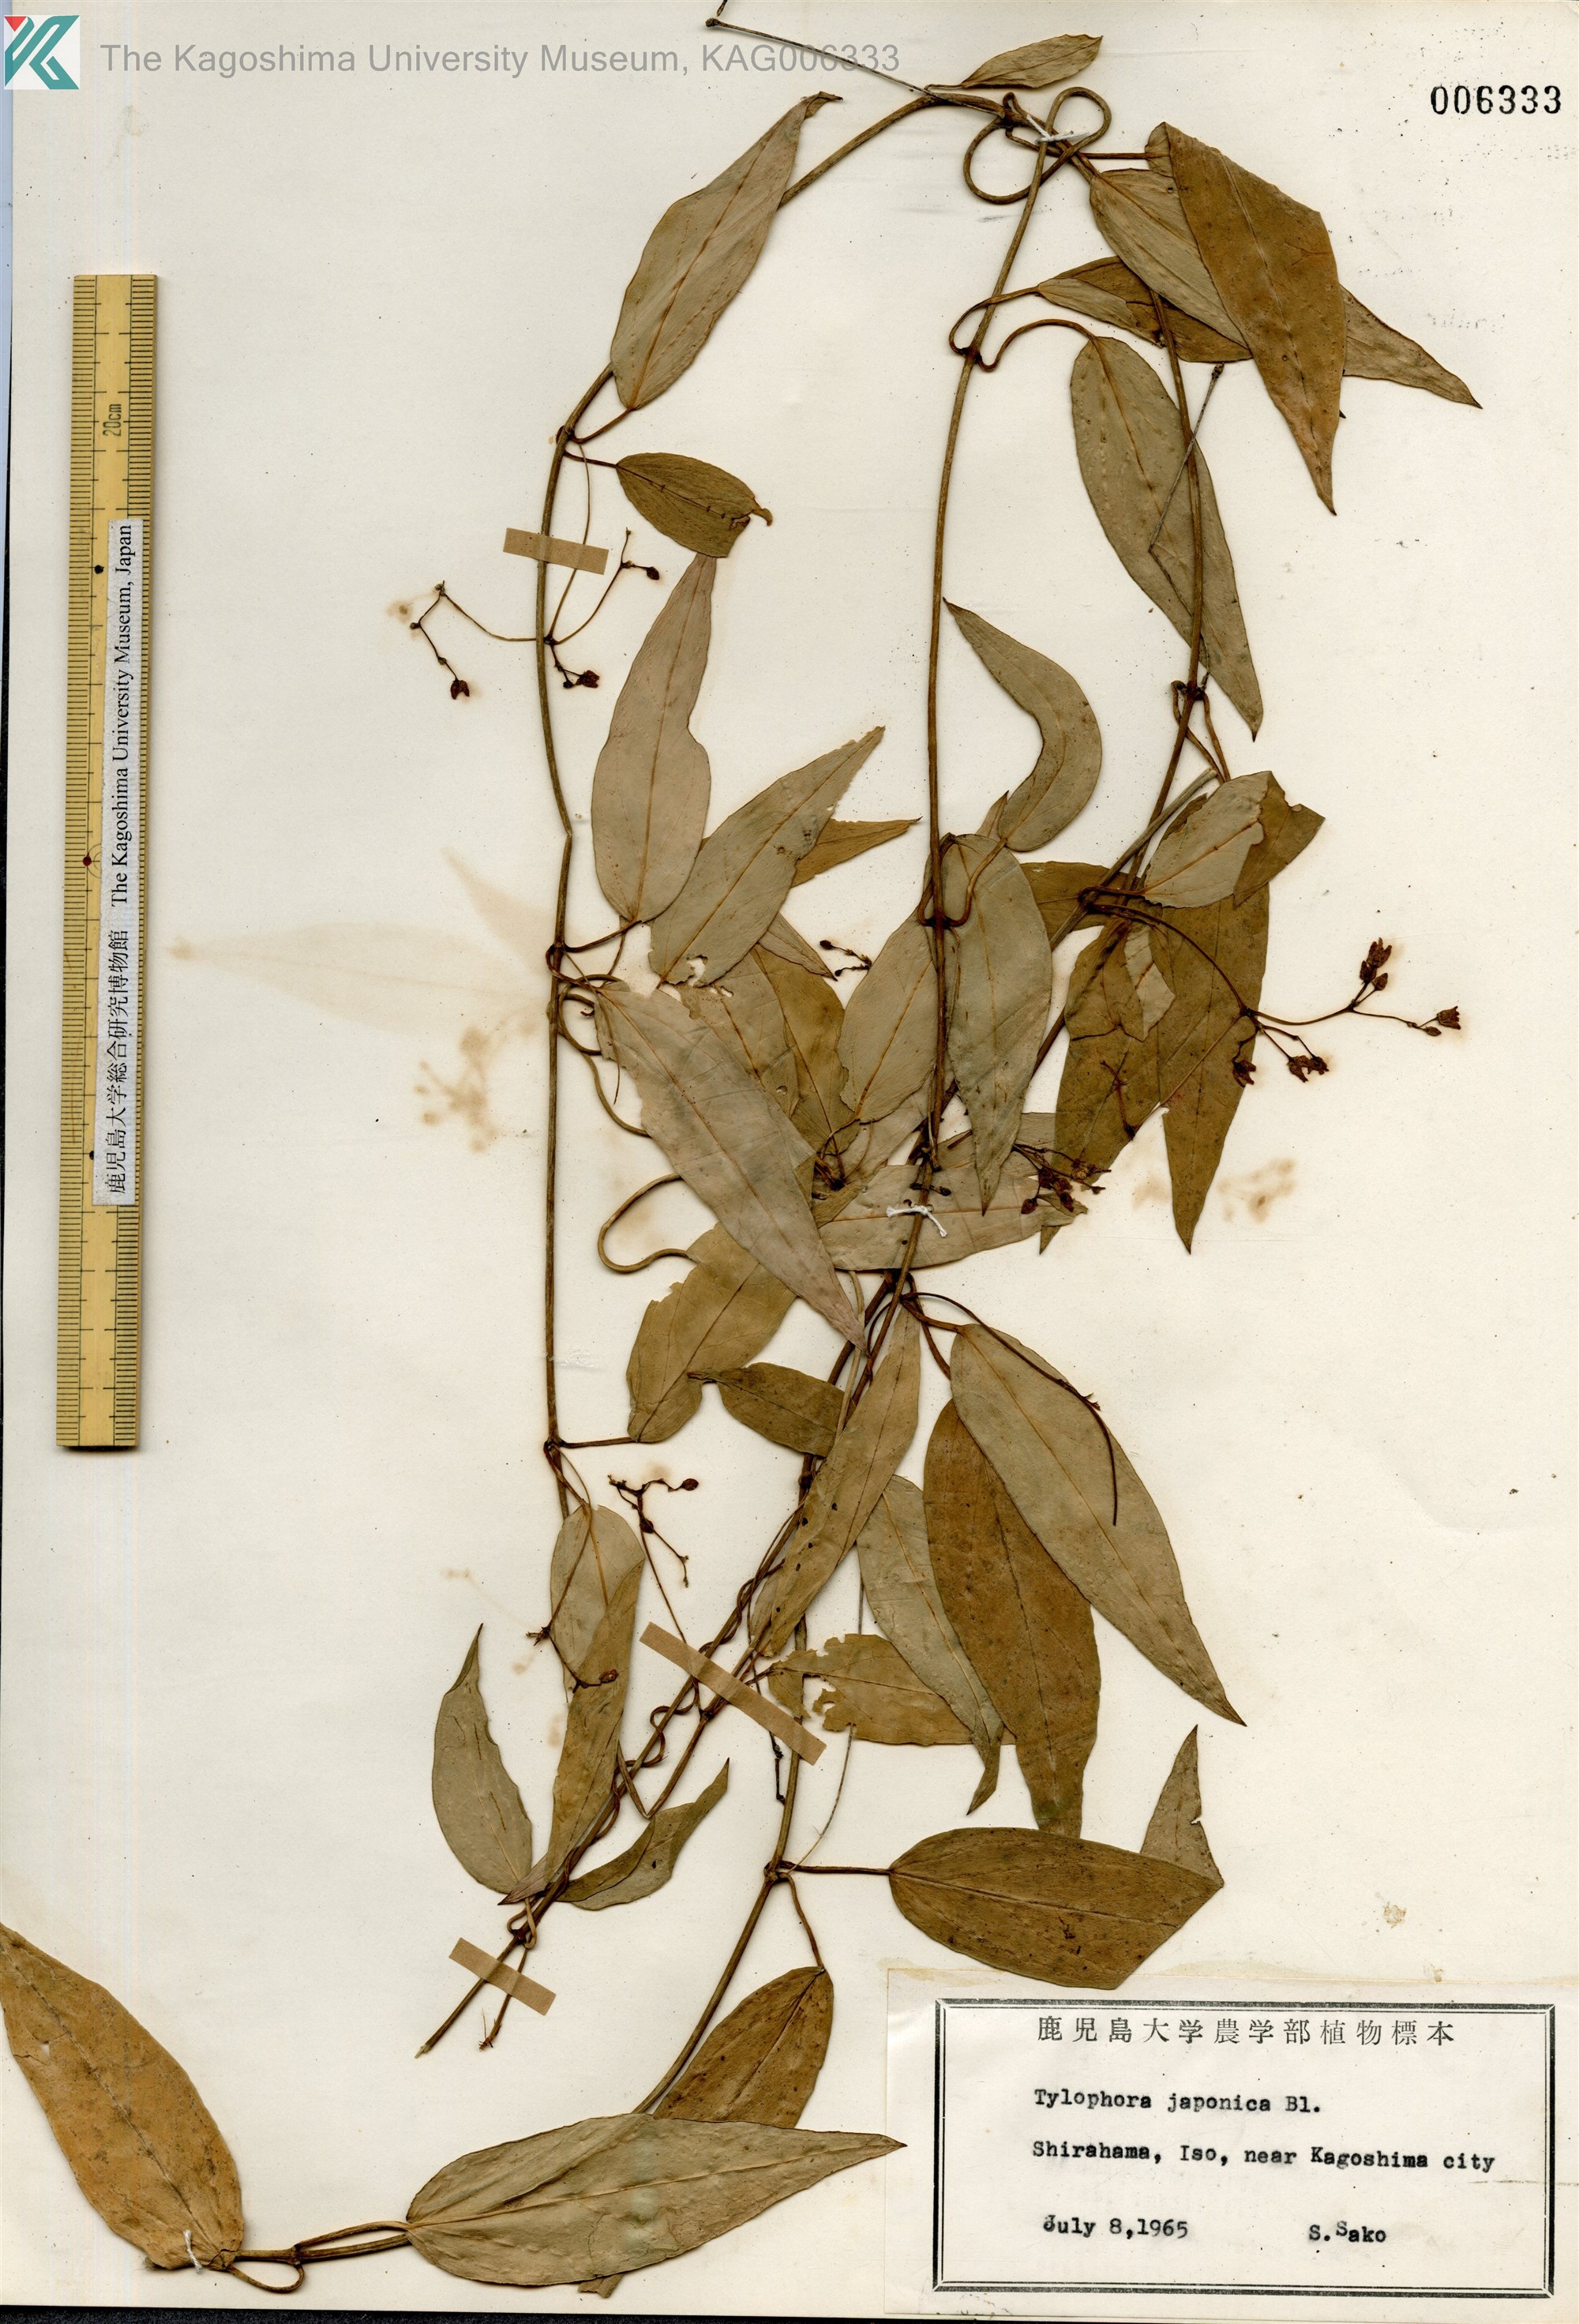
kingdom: Plantae
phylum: Tracheophyta
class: Magnoliopsida
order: Gentianales
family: Apocynaceae
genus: Vincetoxicum
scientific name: Vincetoxicum sieboldii
